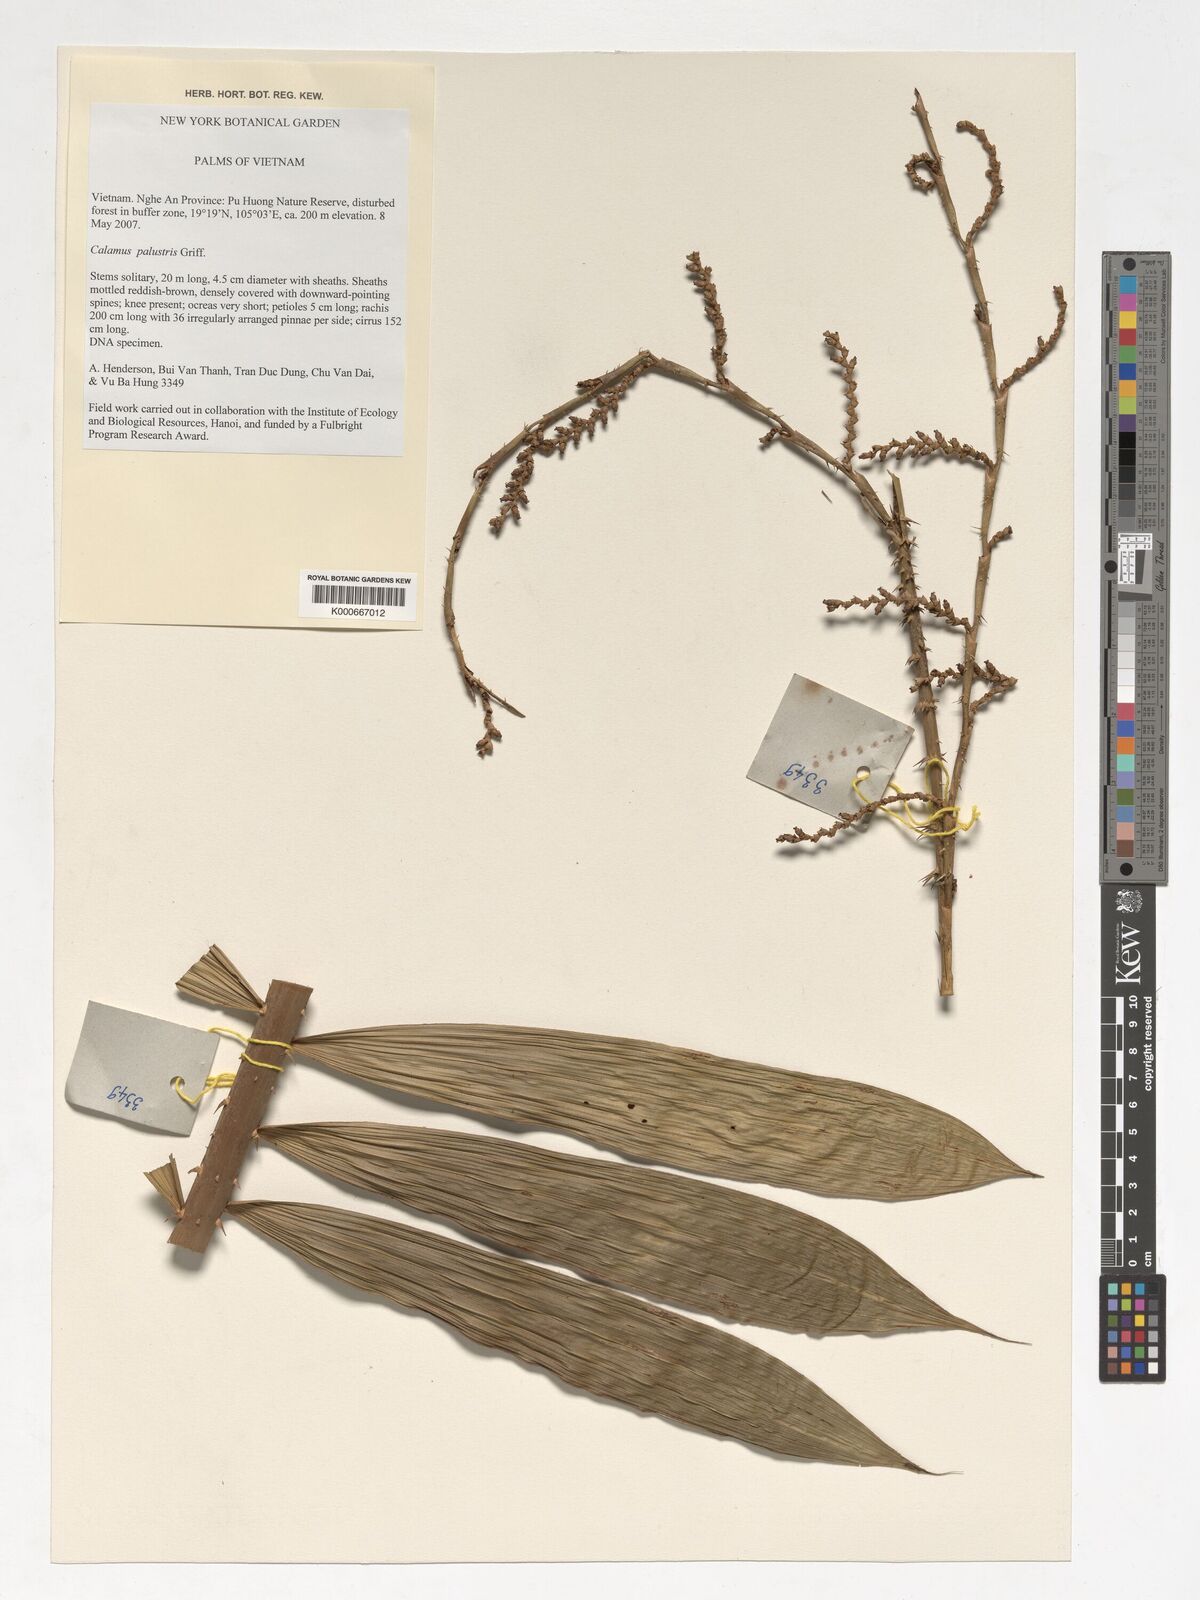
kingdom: Plantae
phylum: Tracheophyta
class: Liliopsida
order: Arecales
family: Arecaceae
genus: Calamus
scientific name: Calamus latifolius
